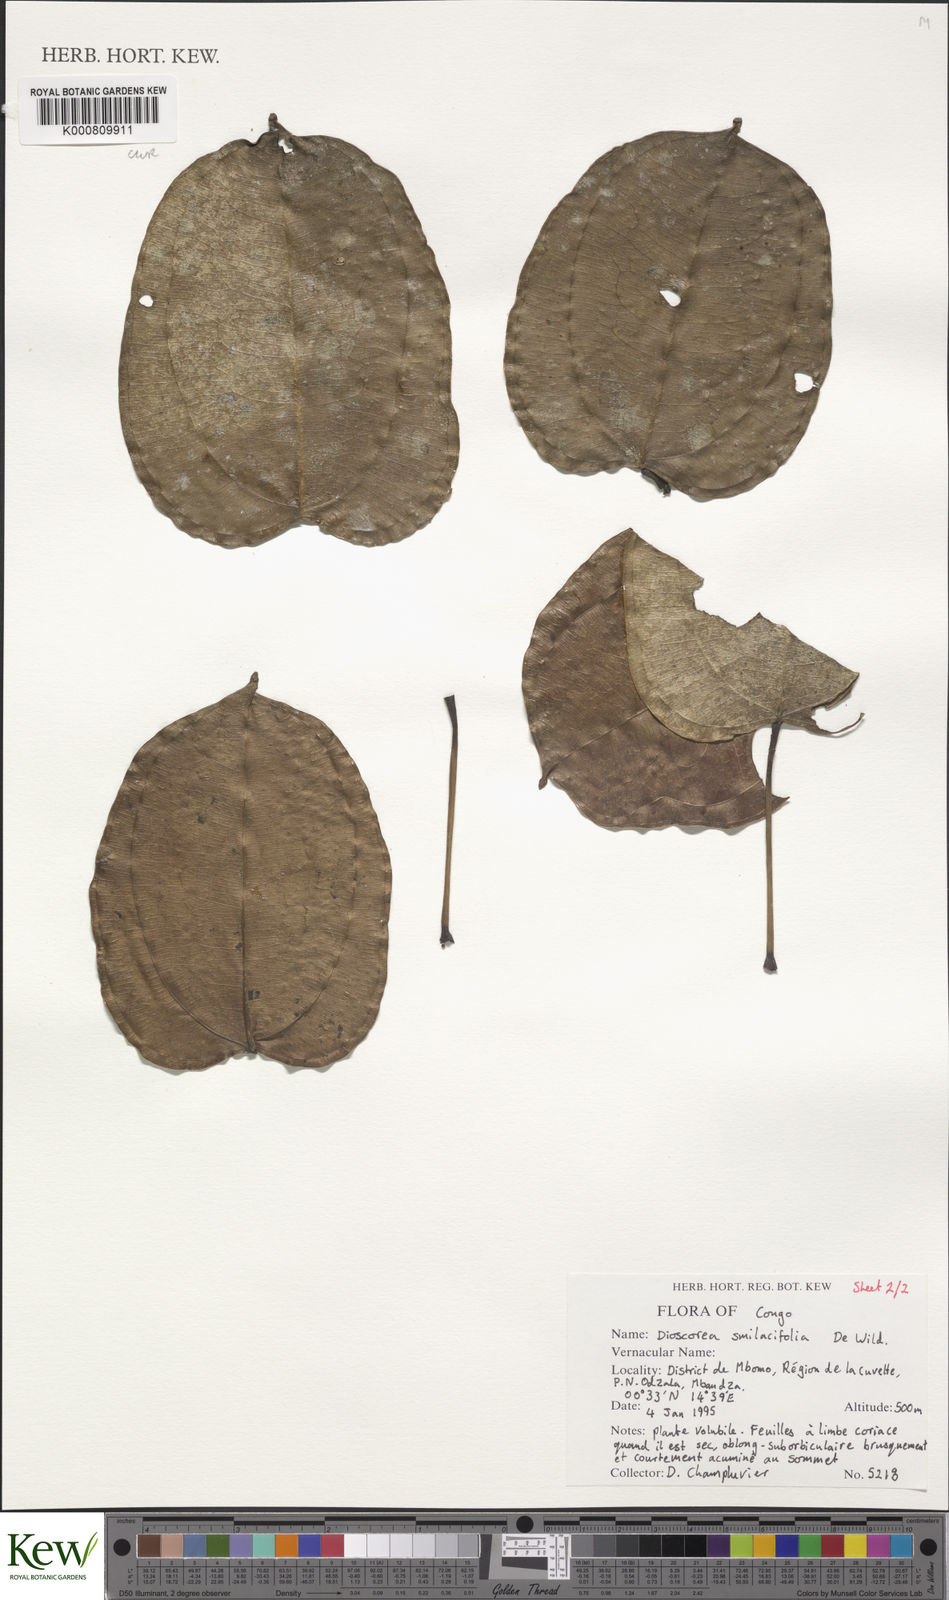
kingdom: Plantae
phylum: Tracheophyta
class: Liliopsida
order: Dioscoreales
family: Dioscoreaceae
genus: Dioscorea
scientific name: Dioscorea smilacifolia
